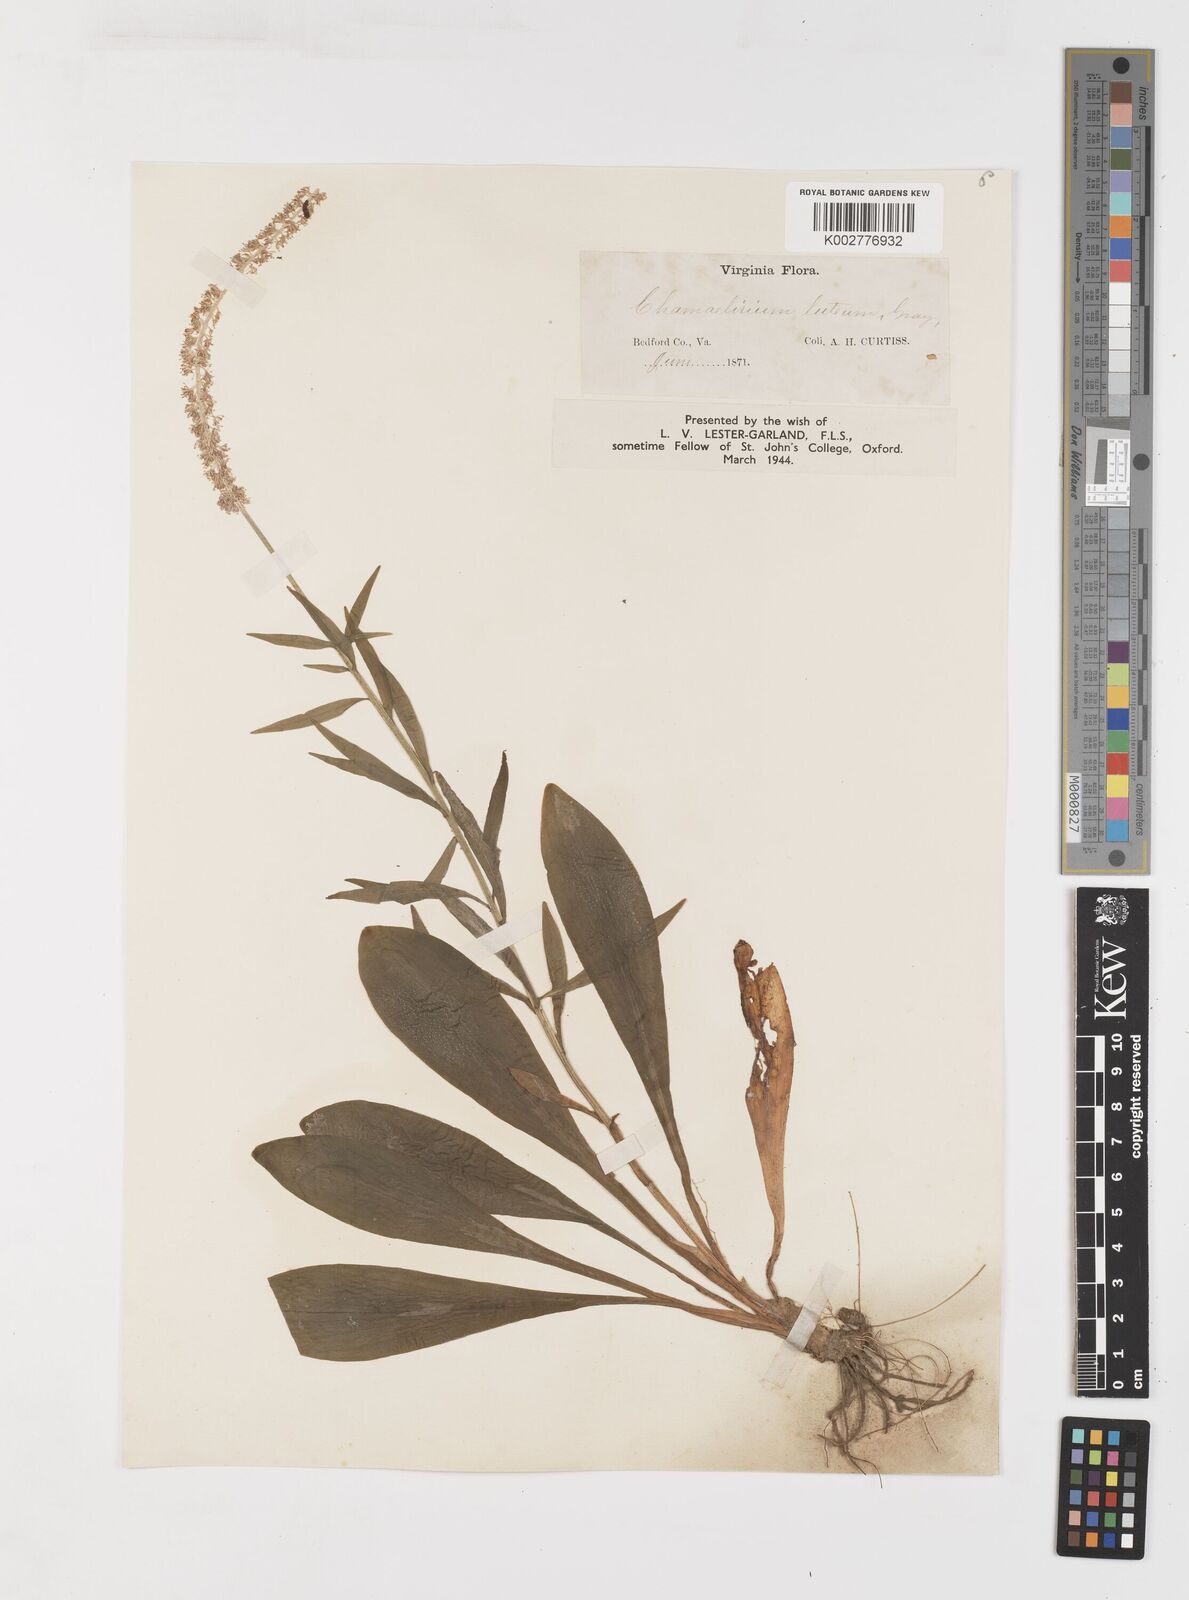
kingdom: Plantae
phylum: Tracheophyta
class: Liliopsida
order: Liliales
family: Melanthiaceae
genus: Chamaelirium
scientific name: Chamaelirium luteum
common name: Fairy-wand
